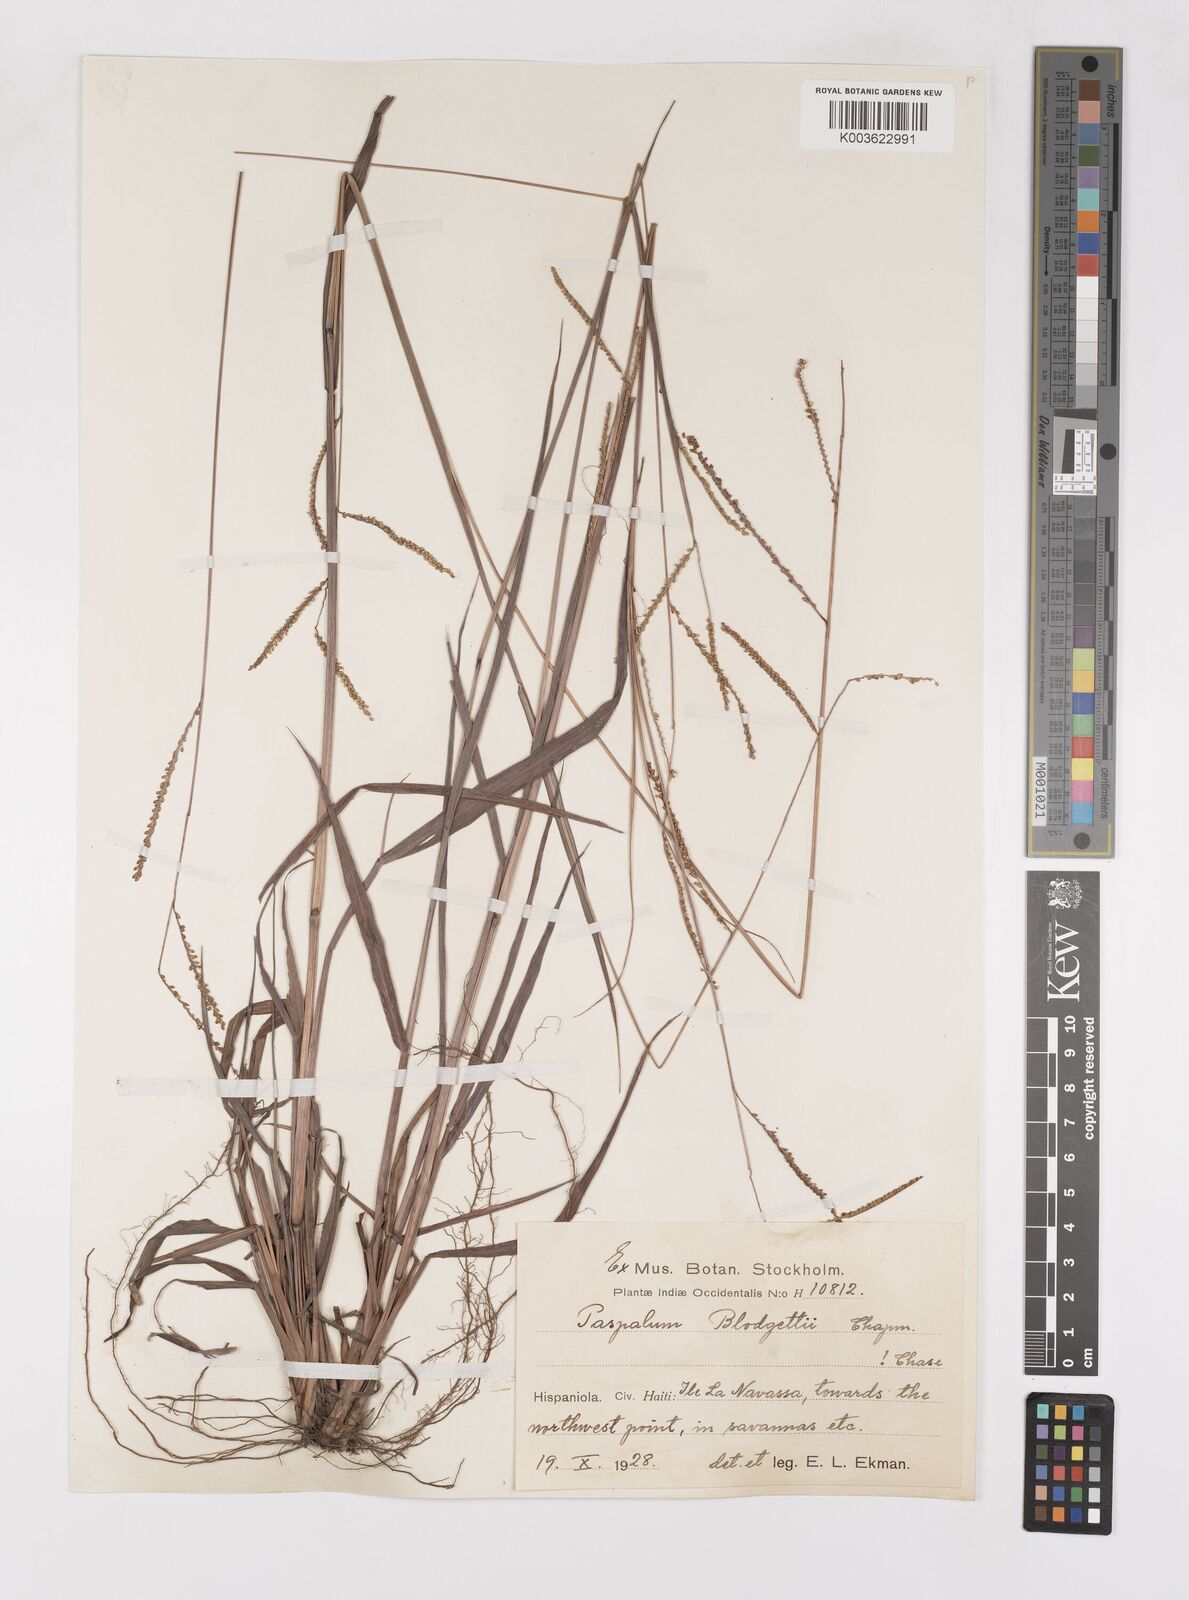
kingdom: Plantae
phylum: Tracheophyta
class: Liliopsida
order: Poales
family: Poaceae
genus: Paspalum
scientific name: Paspalum blodgettii
